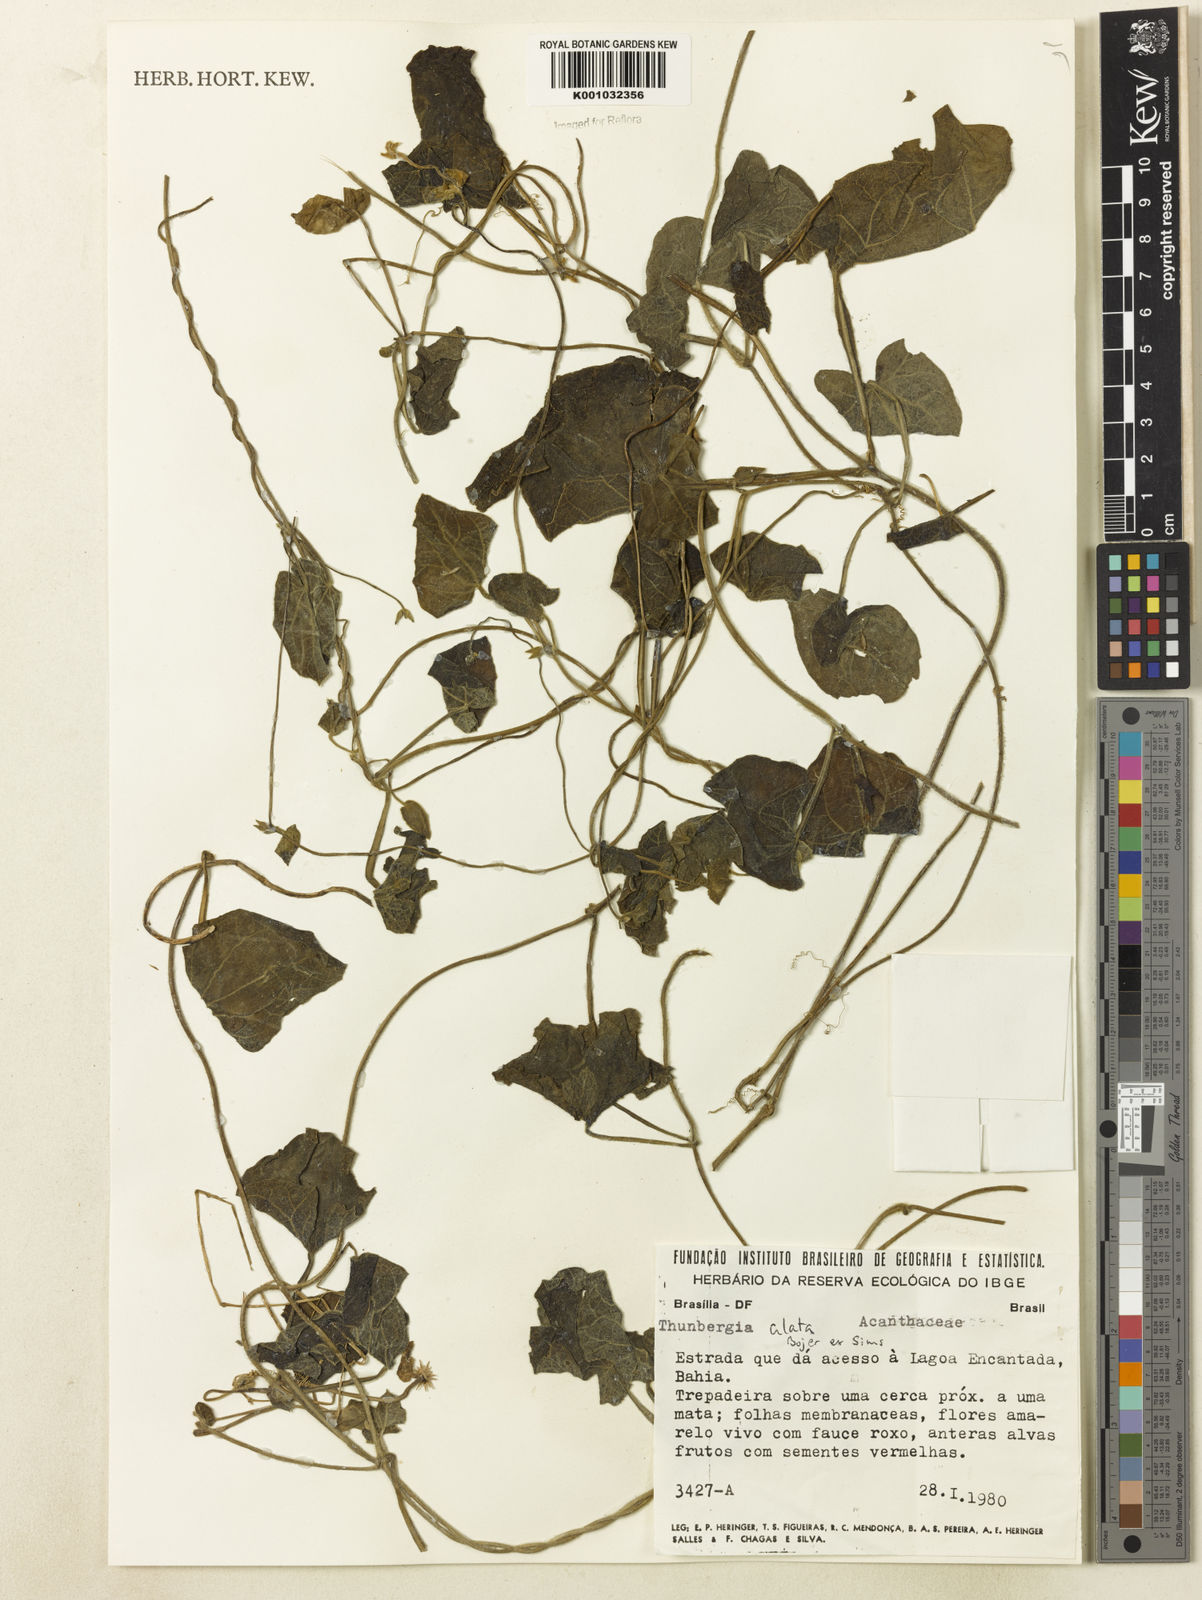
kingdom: Plantae
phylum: Tracheophyta
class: Magnoliopsida
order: Lamiales
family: Acanthaceae
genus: Thunbergia
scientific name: Thunbergia alata
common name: Blackeyed susan vine
